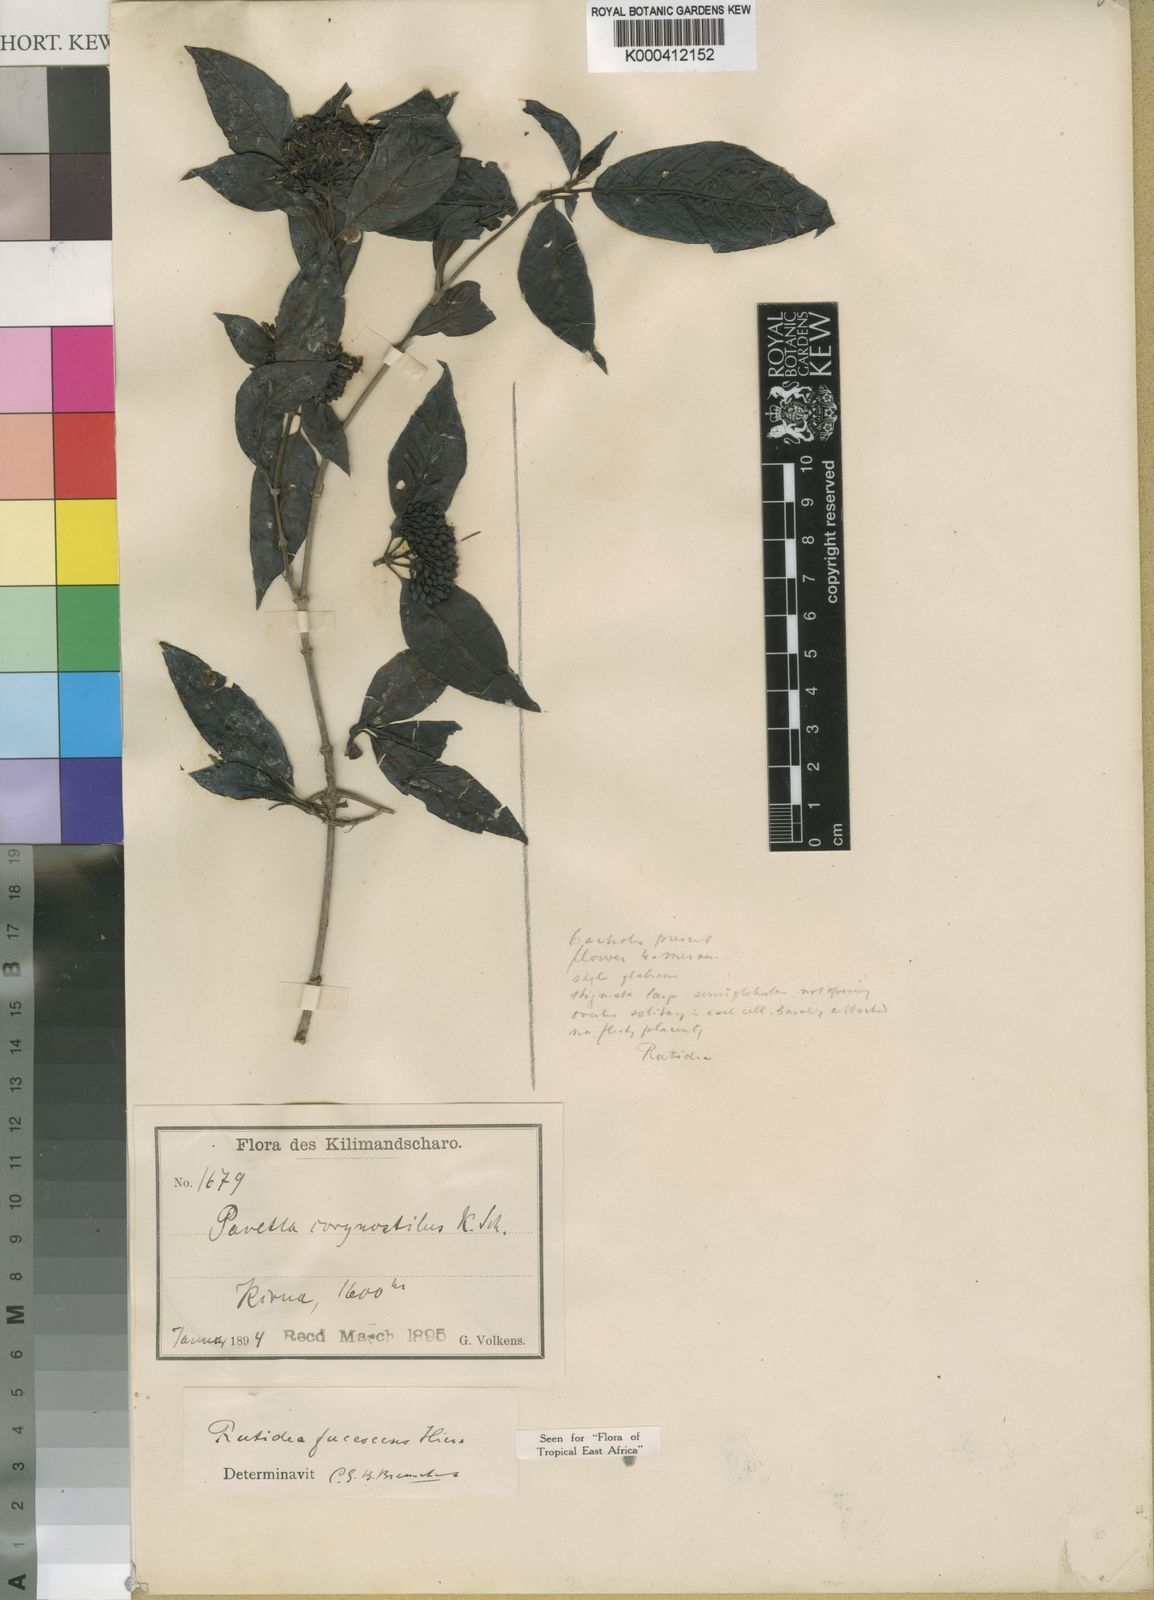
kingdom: Plantae
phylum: Tracheophyta
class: Magnoliopsida
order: Gentianales
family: Rubiaceae
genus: Rutidea
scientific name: Rutidea fuscescens
